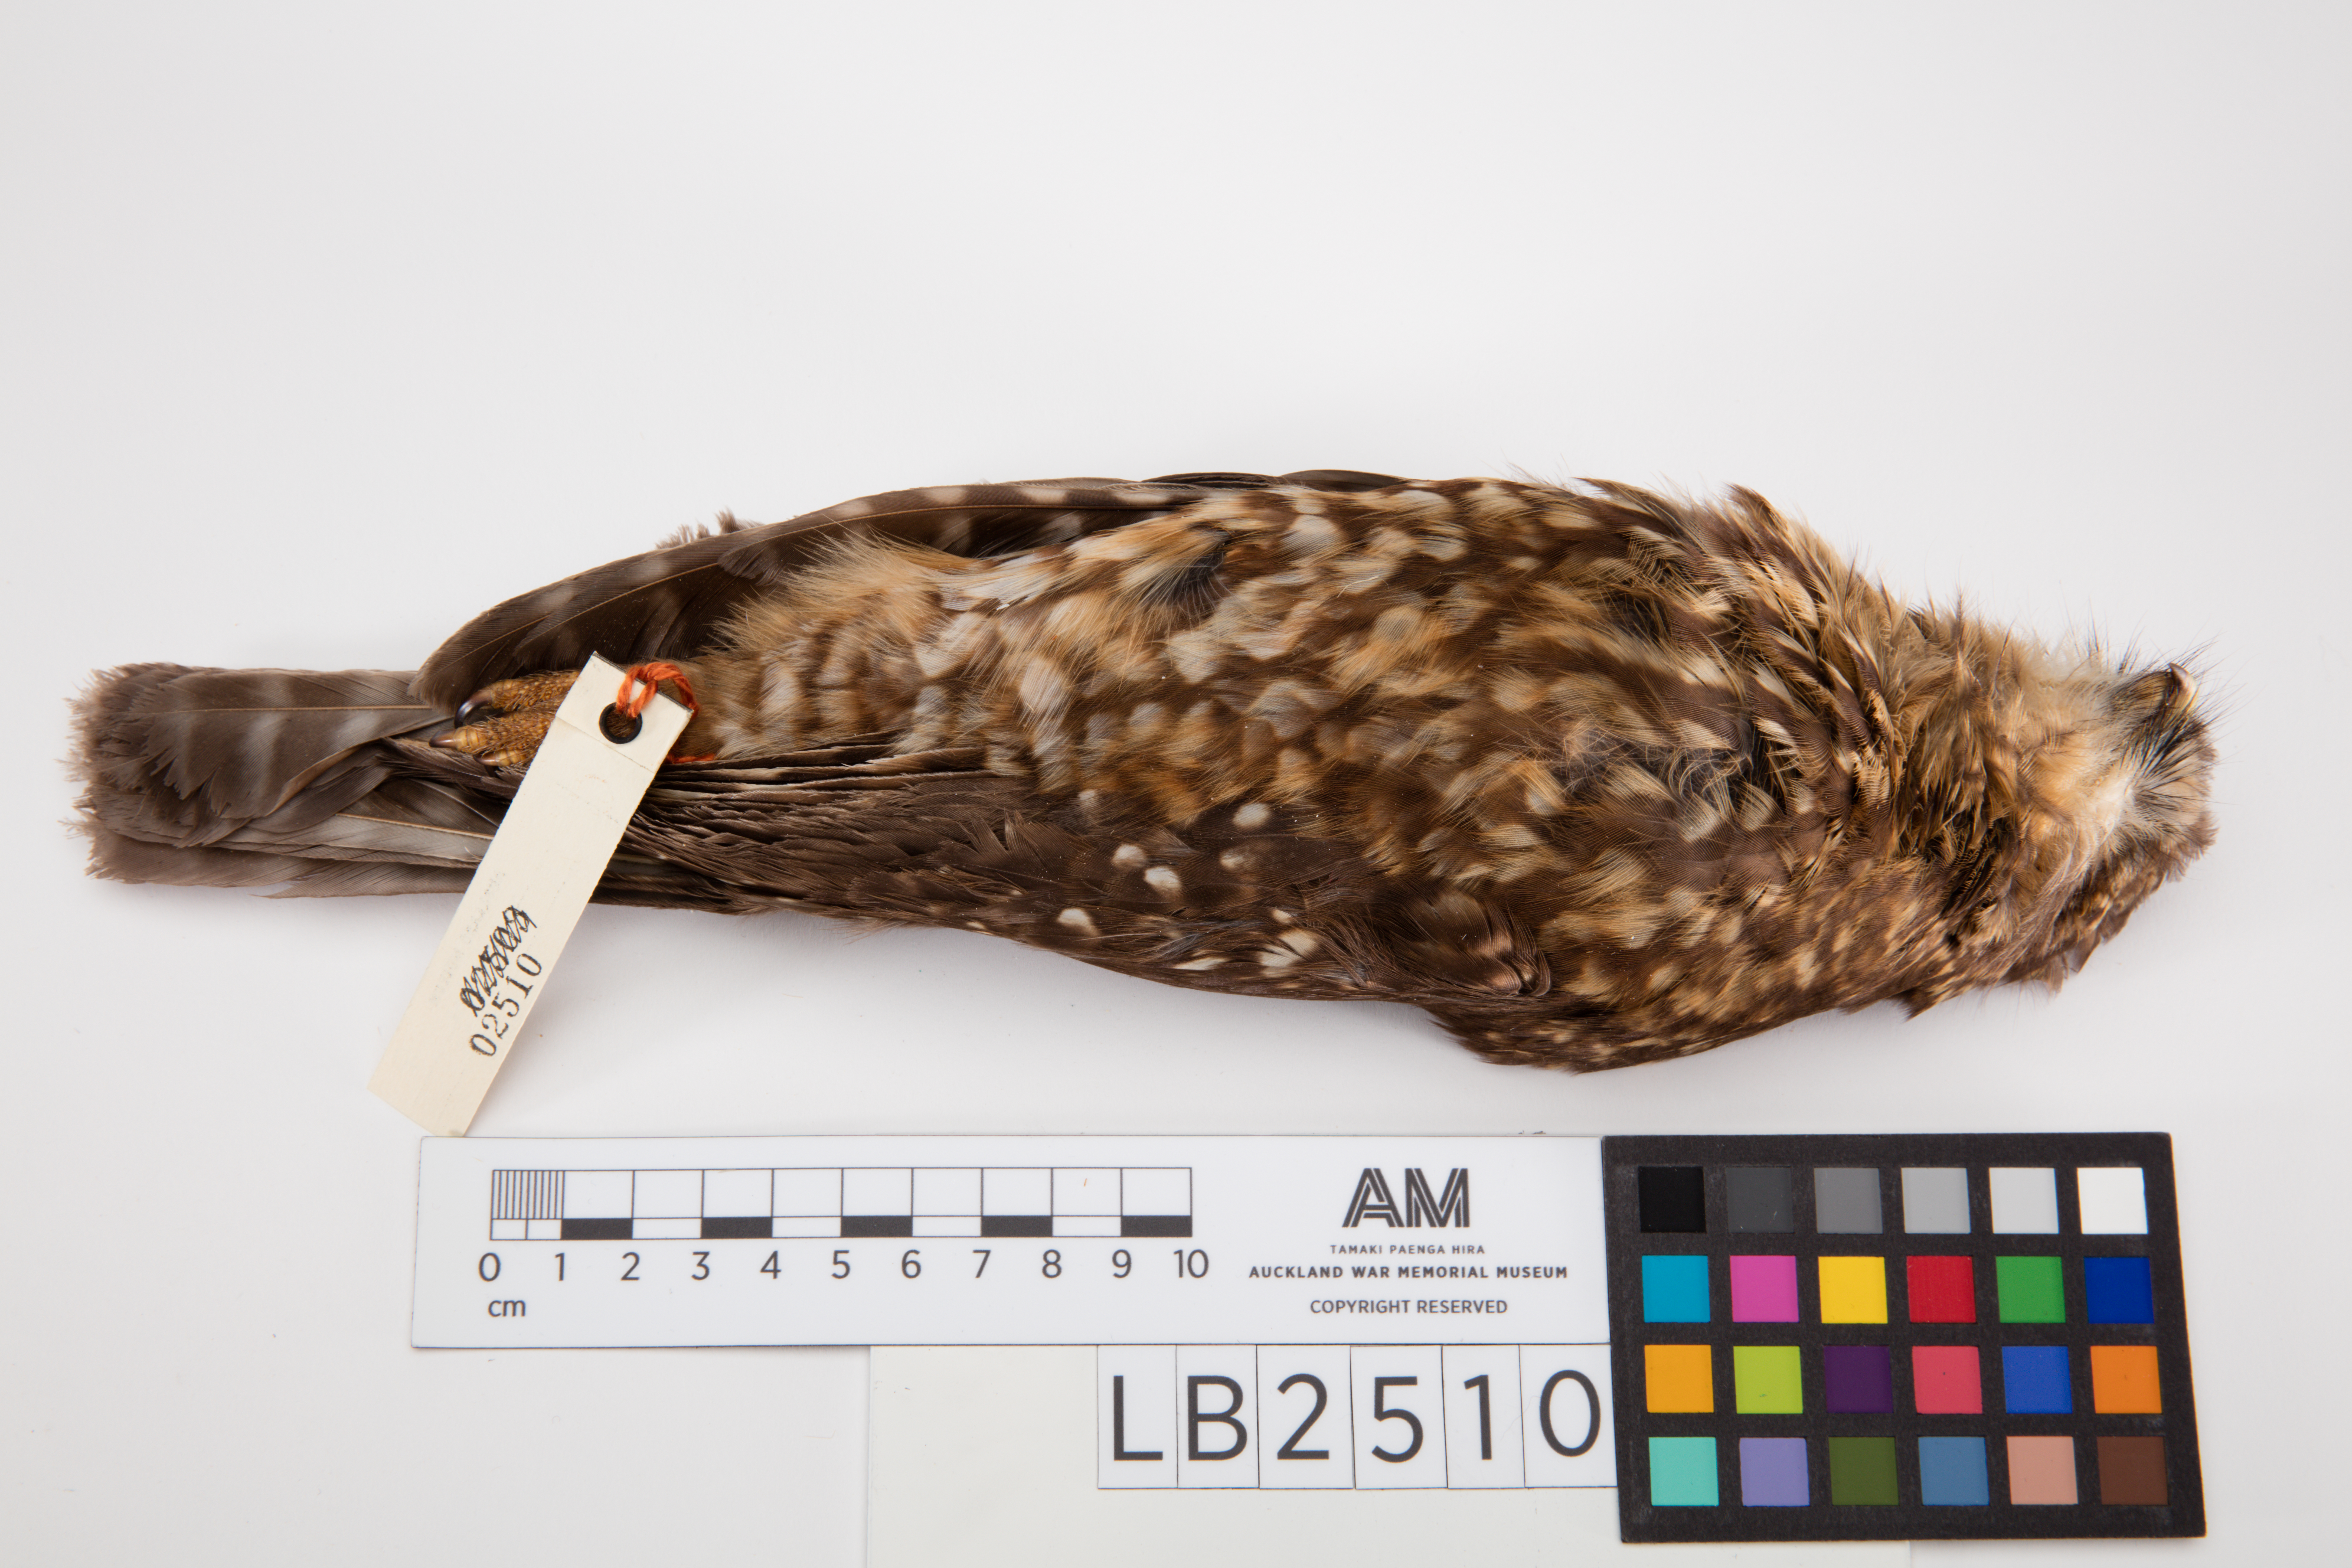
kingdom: Animalia
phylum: Chordata
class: Aves
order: Strigiformes
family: Strigidae
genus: Ninox
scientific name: Ninox novaeseelandiae
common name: Morepork
